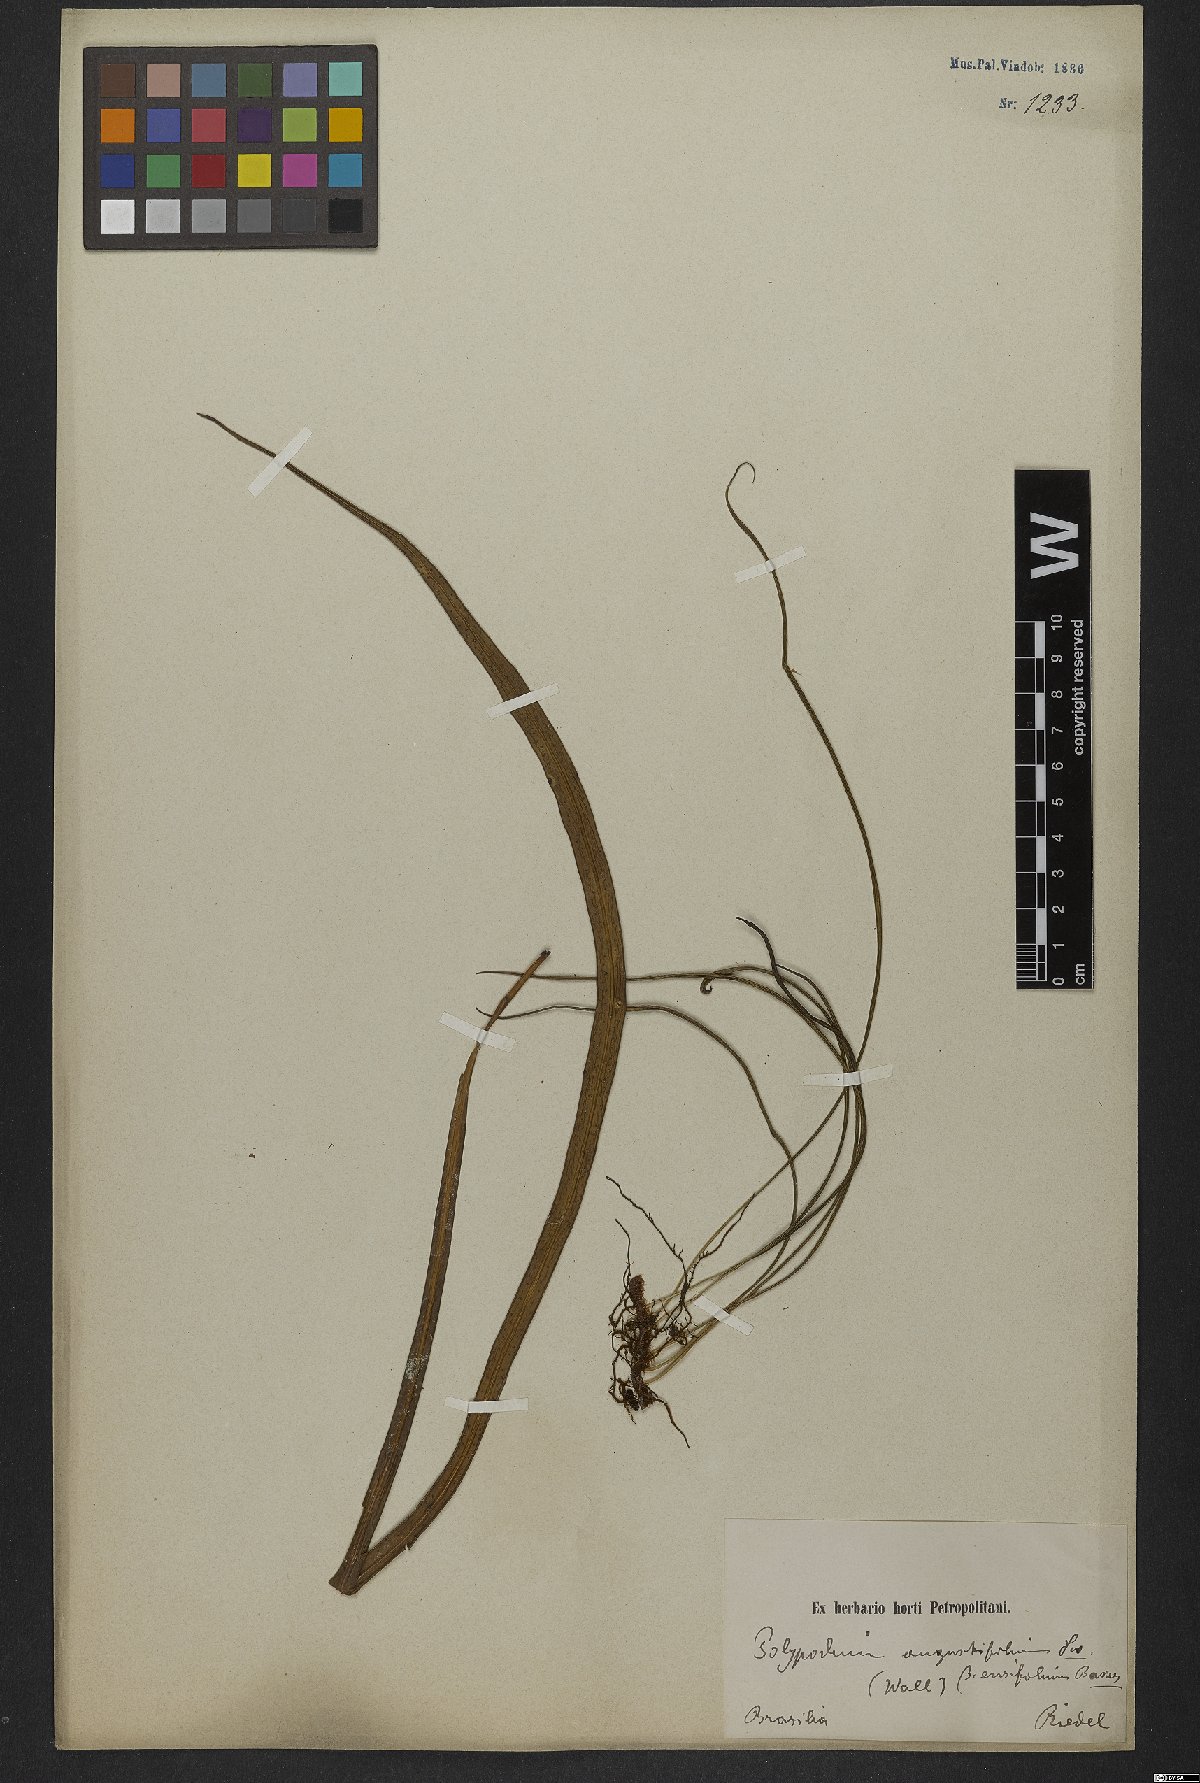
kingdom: Plantae
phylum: Tracheophyta
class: Polypodiopsida
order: Polypodiales
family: Polypodiaceae
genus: Campyloneurum
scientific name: Campyloneurum ensifolium
